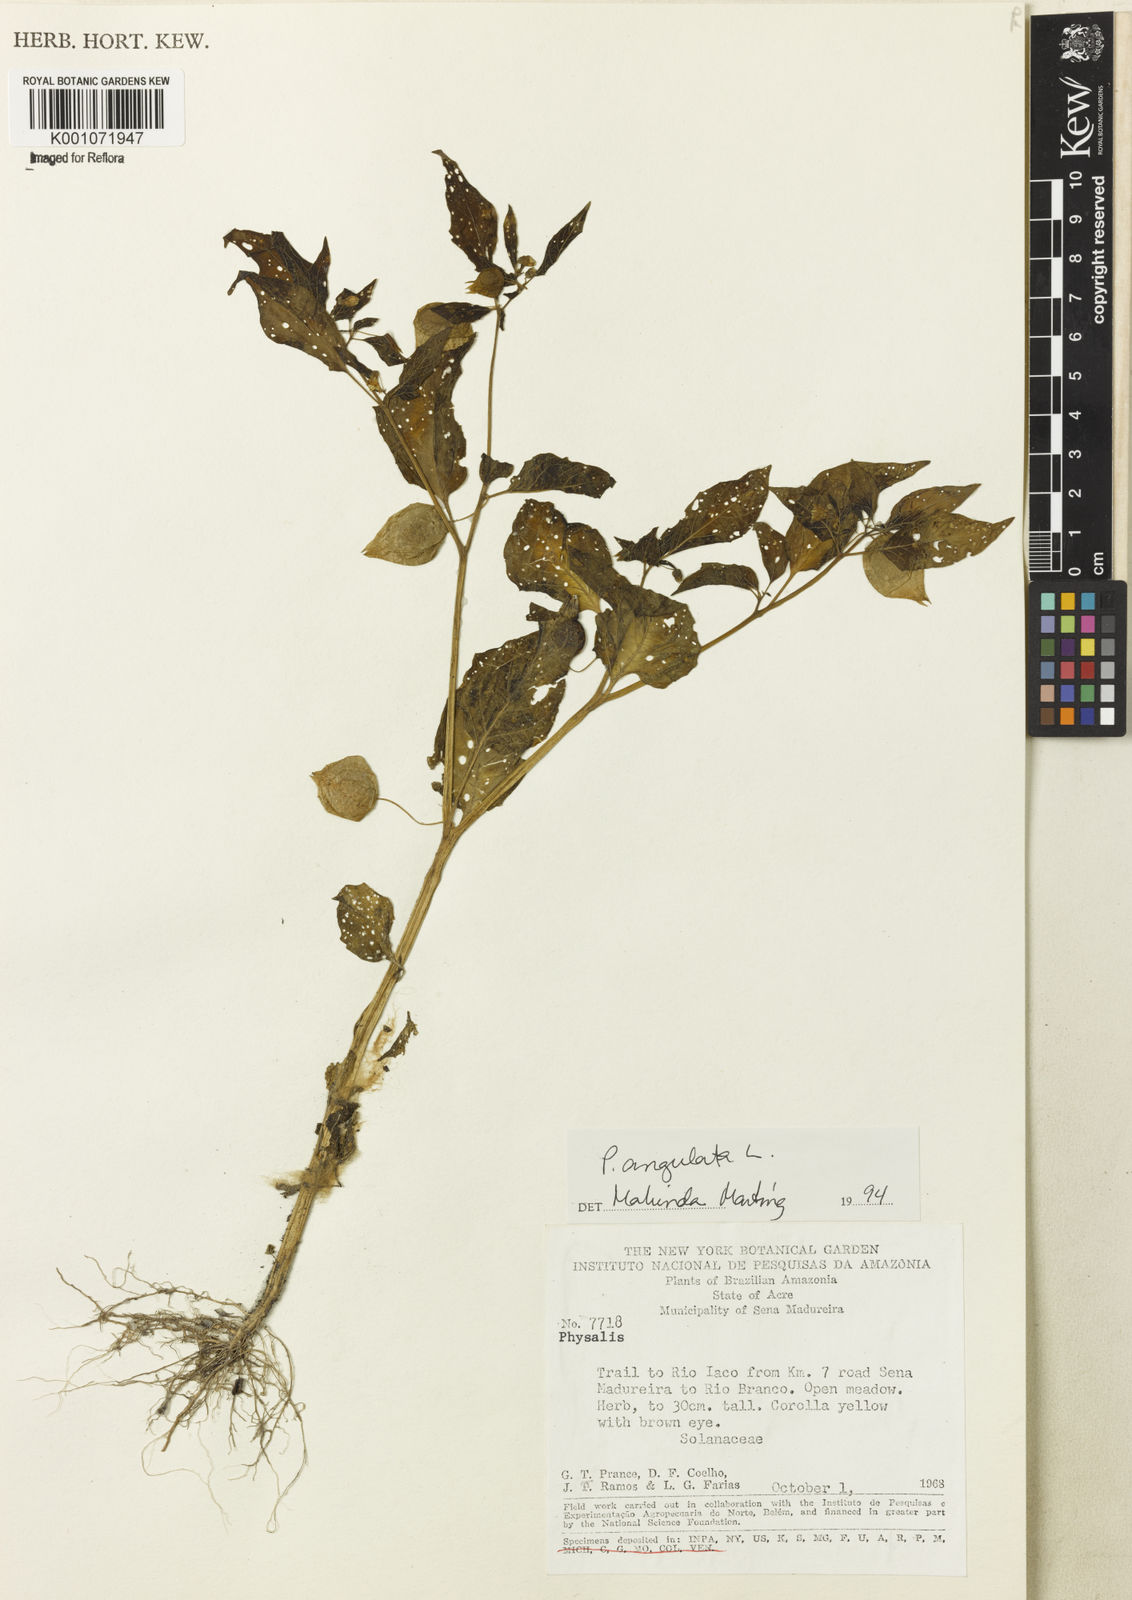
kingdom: Plantae
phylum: Tracheophyta
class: Magnoliopsida
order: Solanales
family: Solanaceae
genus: Physalis
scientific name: Physalis angulata
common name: Angular winter-cherry
